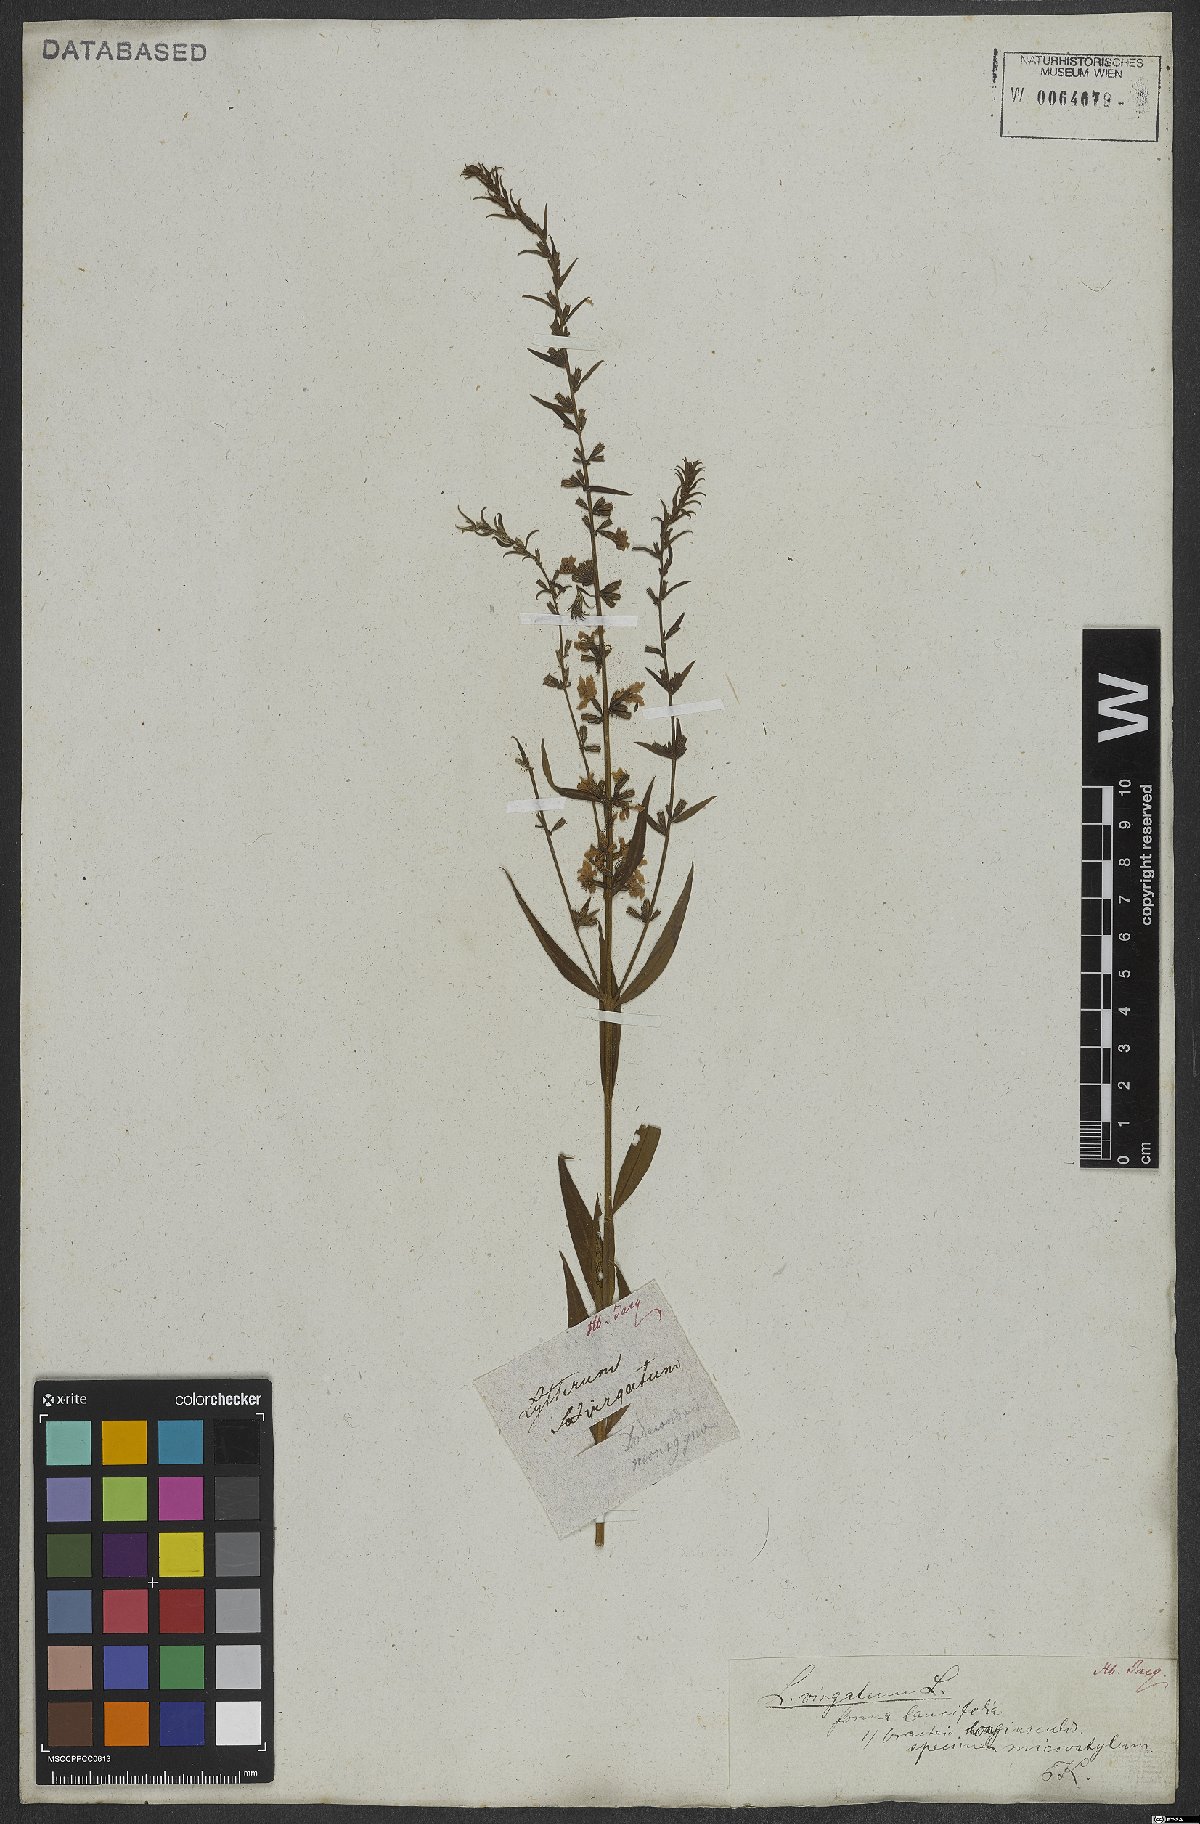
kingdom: Plantae
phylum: Tracheophyta
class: Magnoliopsida
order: Myrtales
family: Lythraceae
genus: Lythrum
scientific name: Lythrum virgatum
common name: European wand loosestrife
